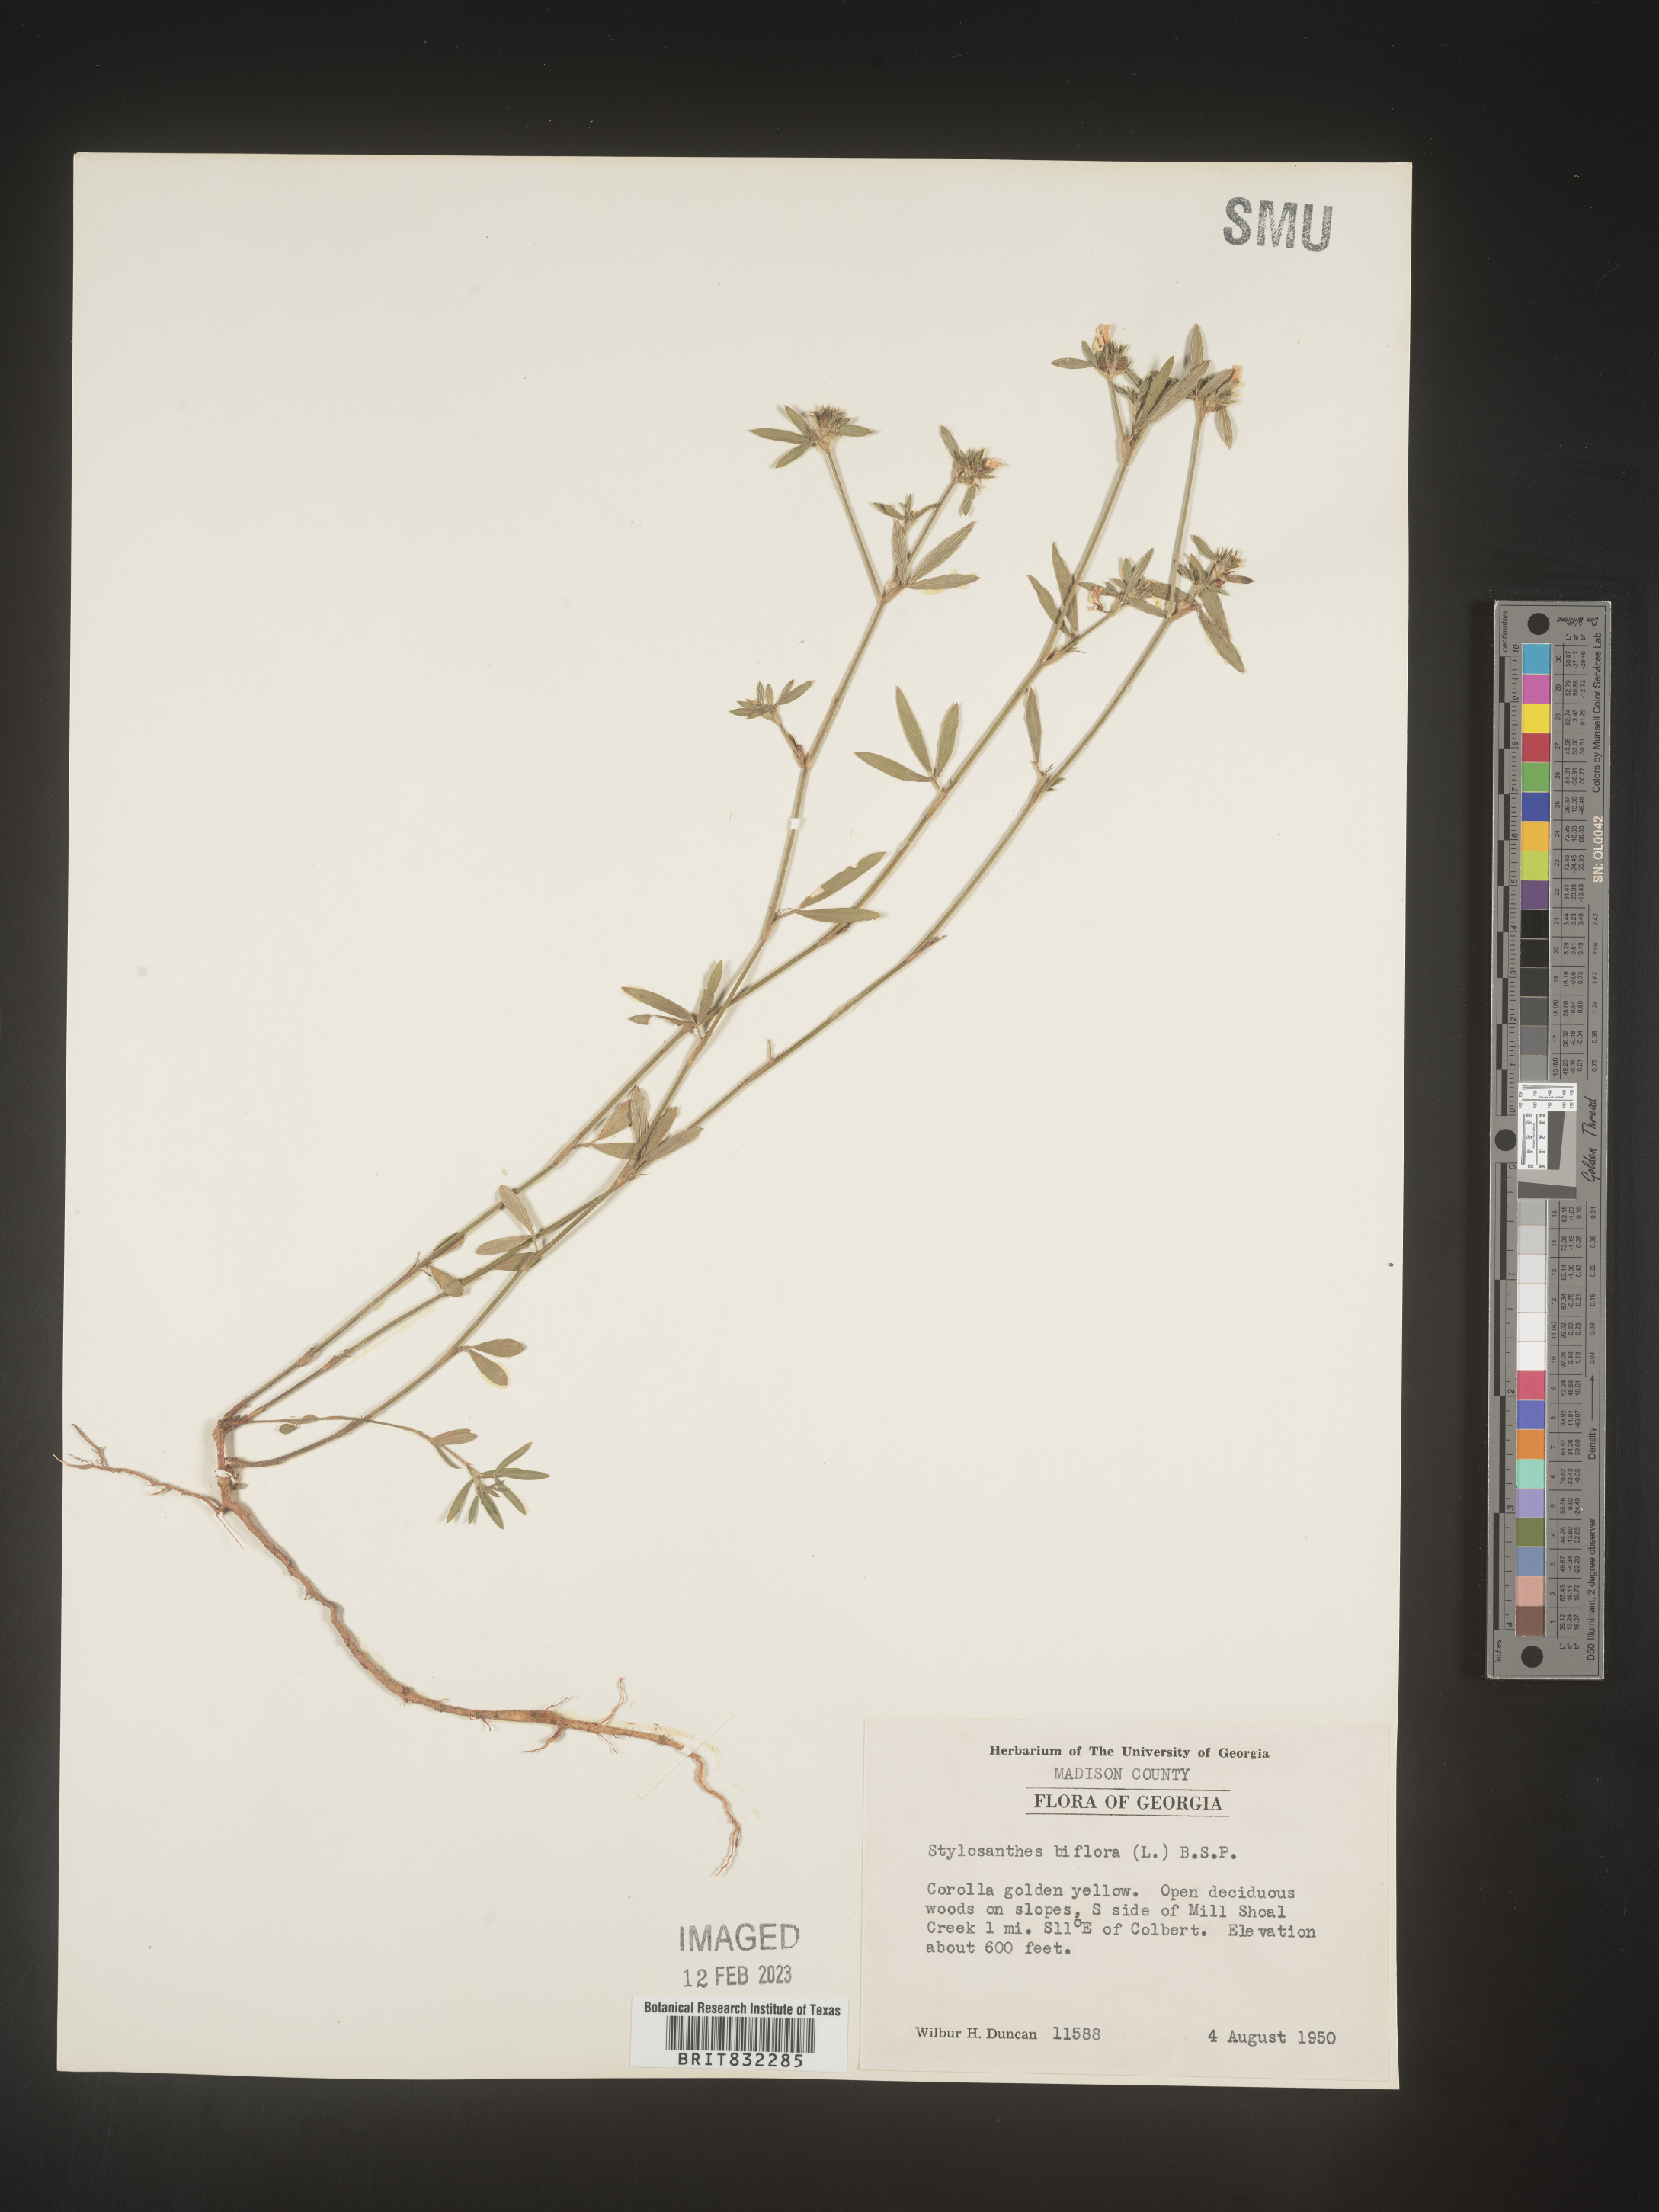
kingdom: Plantae
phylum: Tracheophyta
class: Magnoliopsida
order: Fabales
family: Fabaceae
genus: Stylosanthes
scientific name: Stylosanthes biflora
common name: Two-flower pencil-flower
